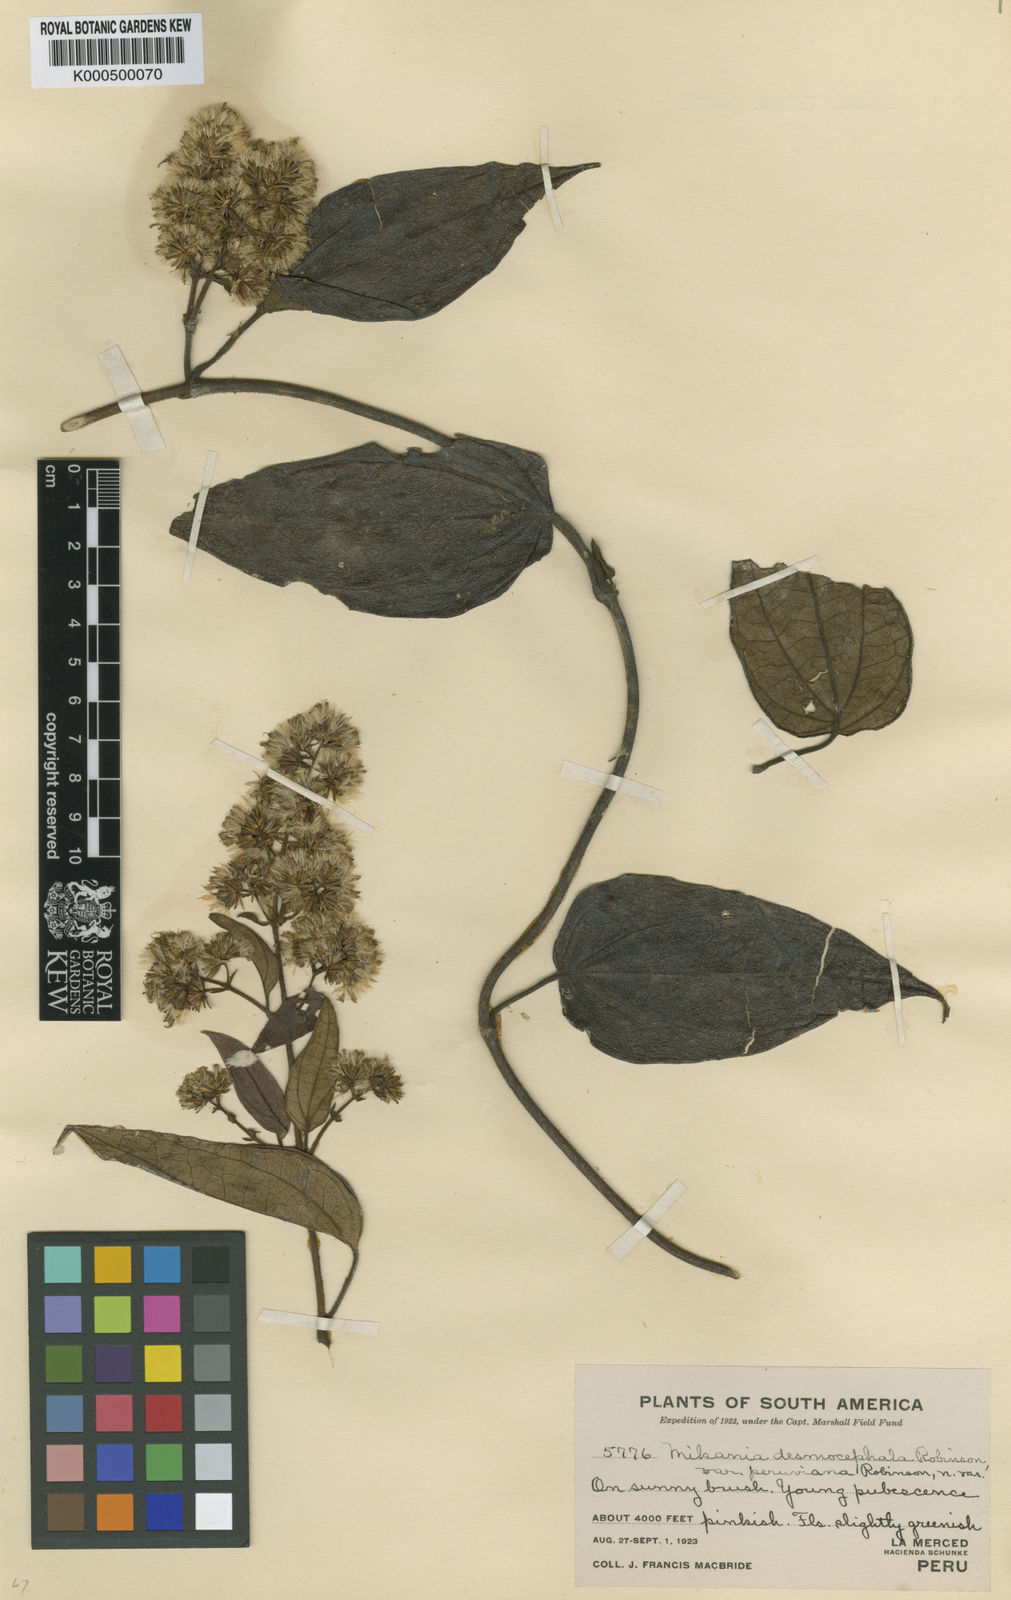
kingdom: Plantae
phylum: Tracheophyta
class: Magnoliopsida
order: Asterales
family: Asteraceae
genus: Mikania
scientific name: Mikania desmocephala
